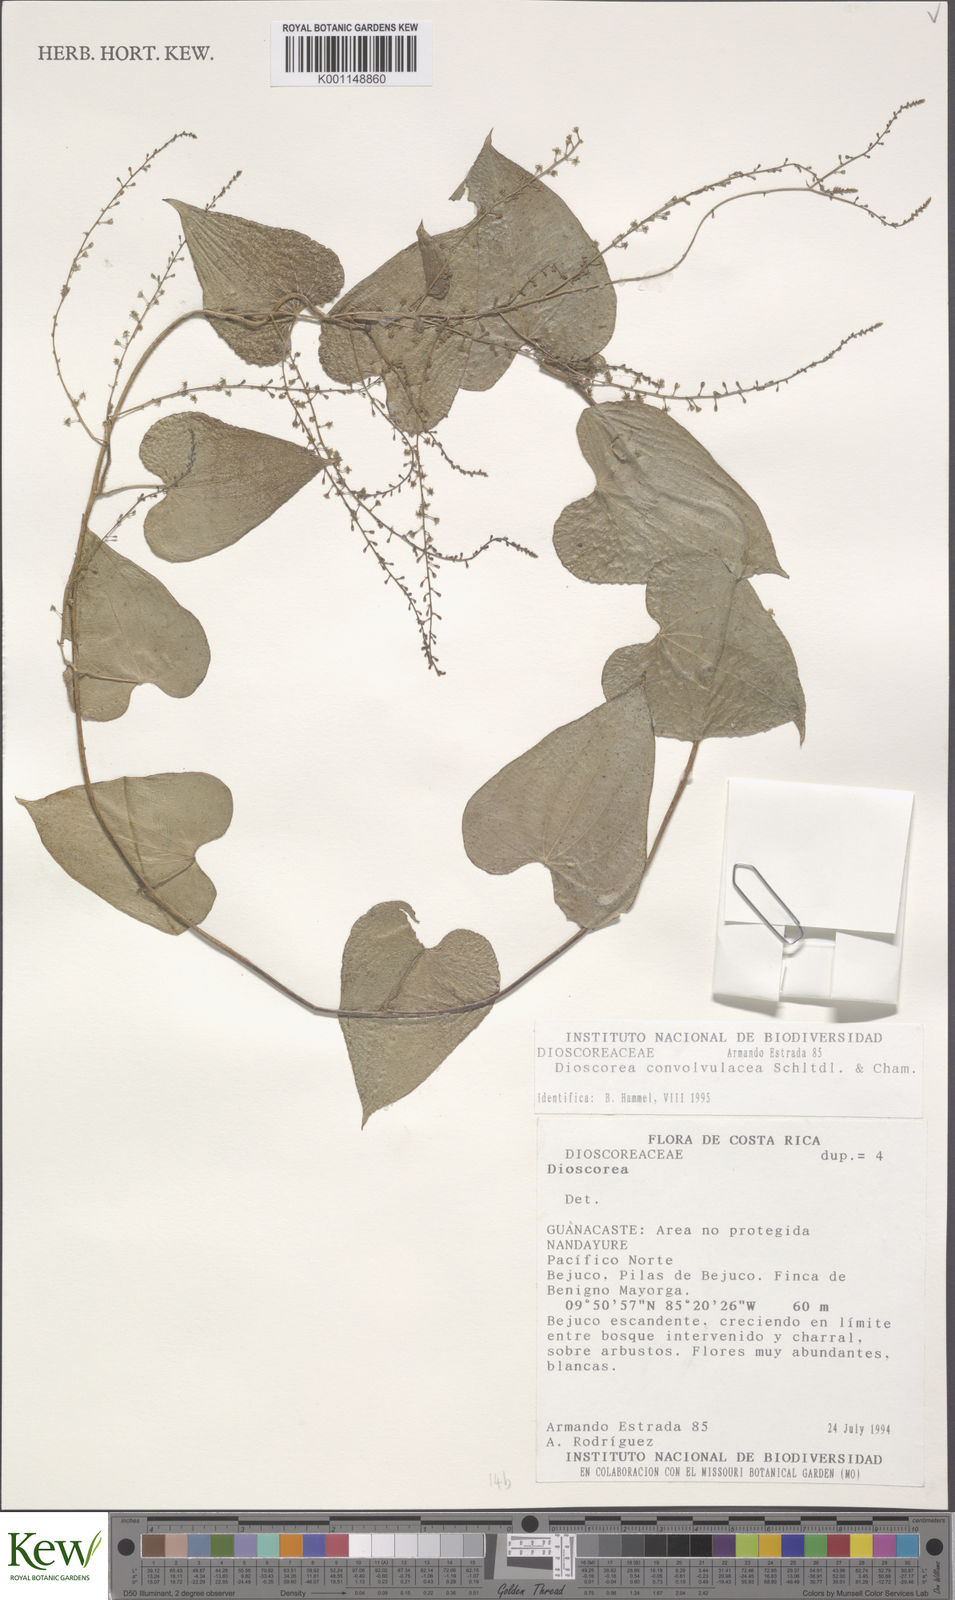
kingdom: Plantae
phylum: Tracheophyta
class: Liliopsida
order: Dioscoreales
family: Dioscoreaceae
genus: Dioscorea
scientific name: Dioscorea convolvulacea
